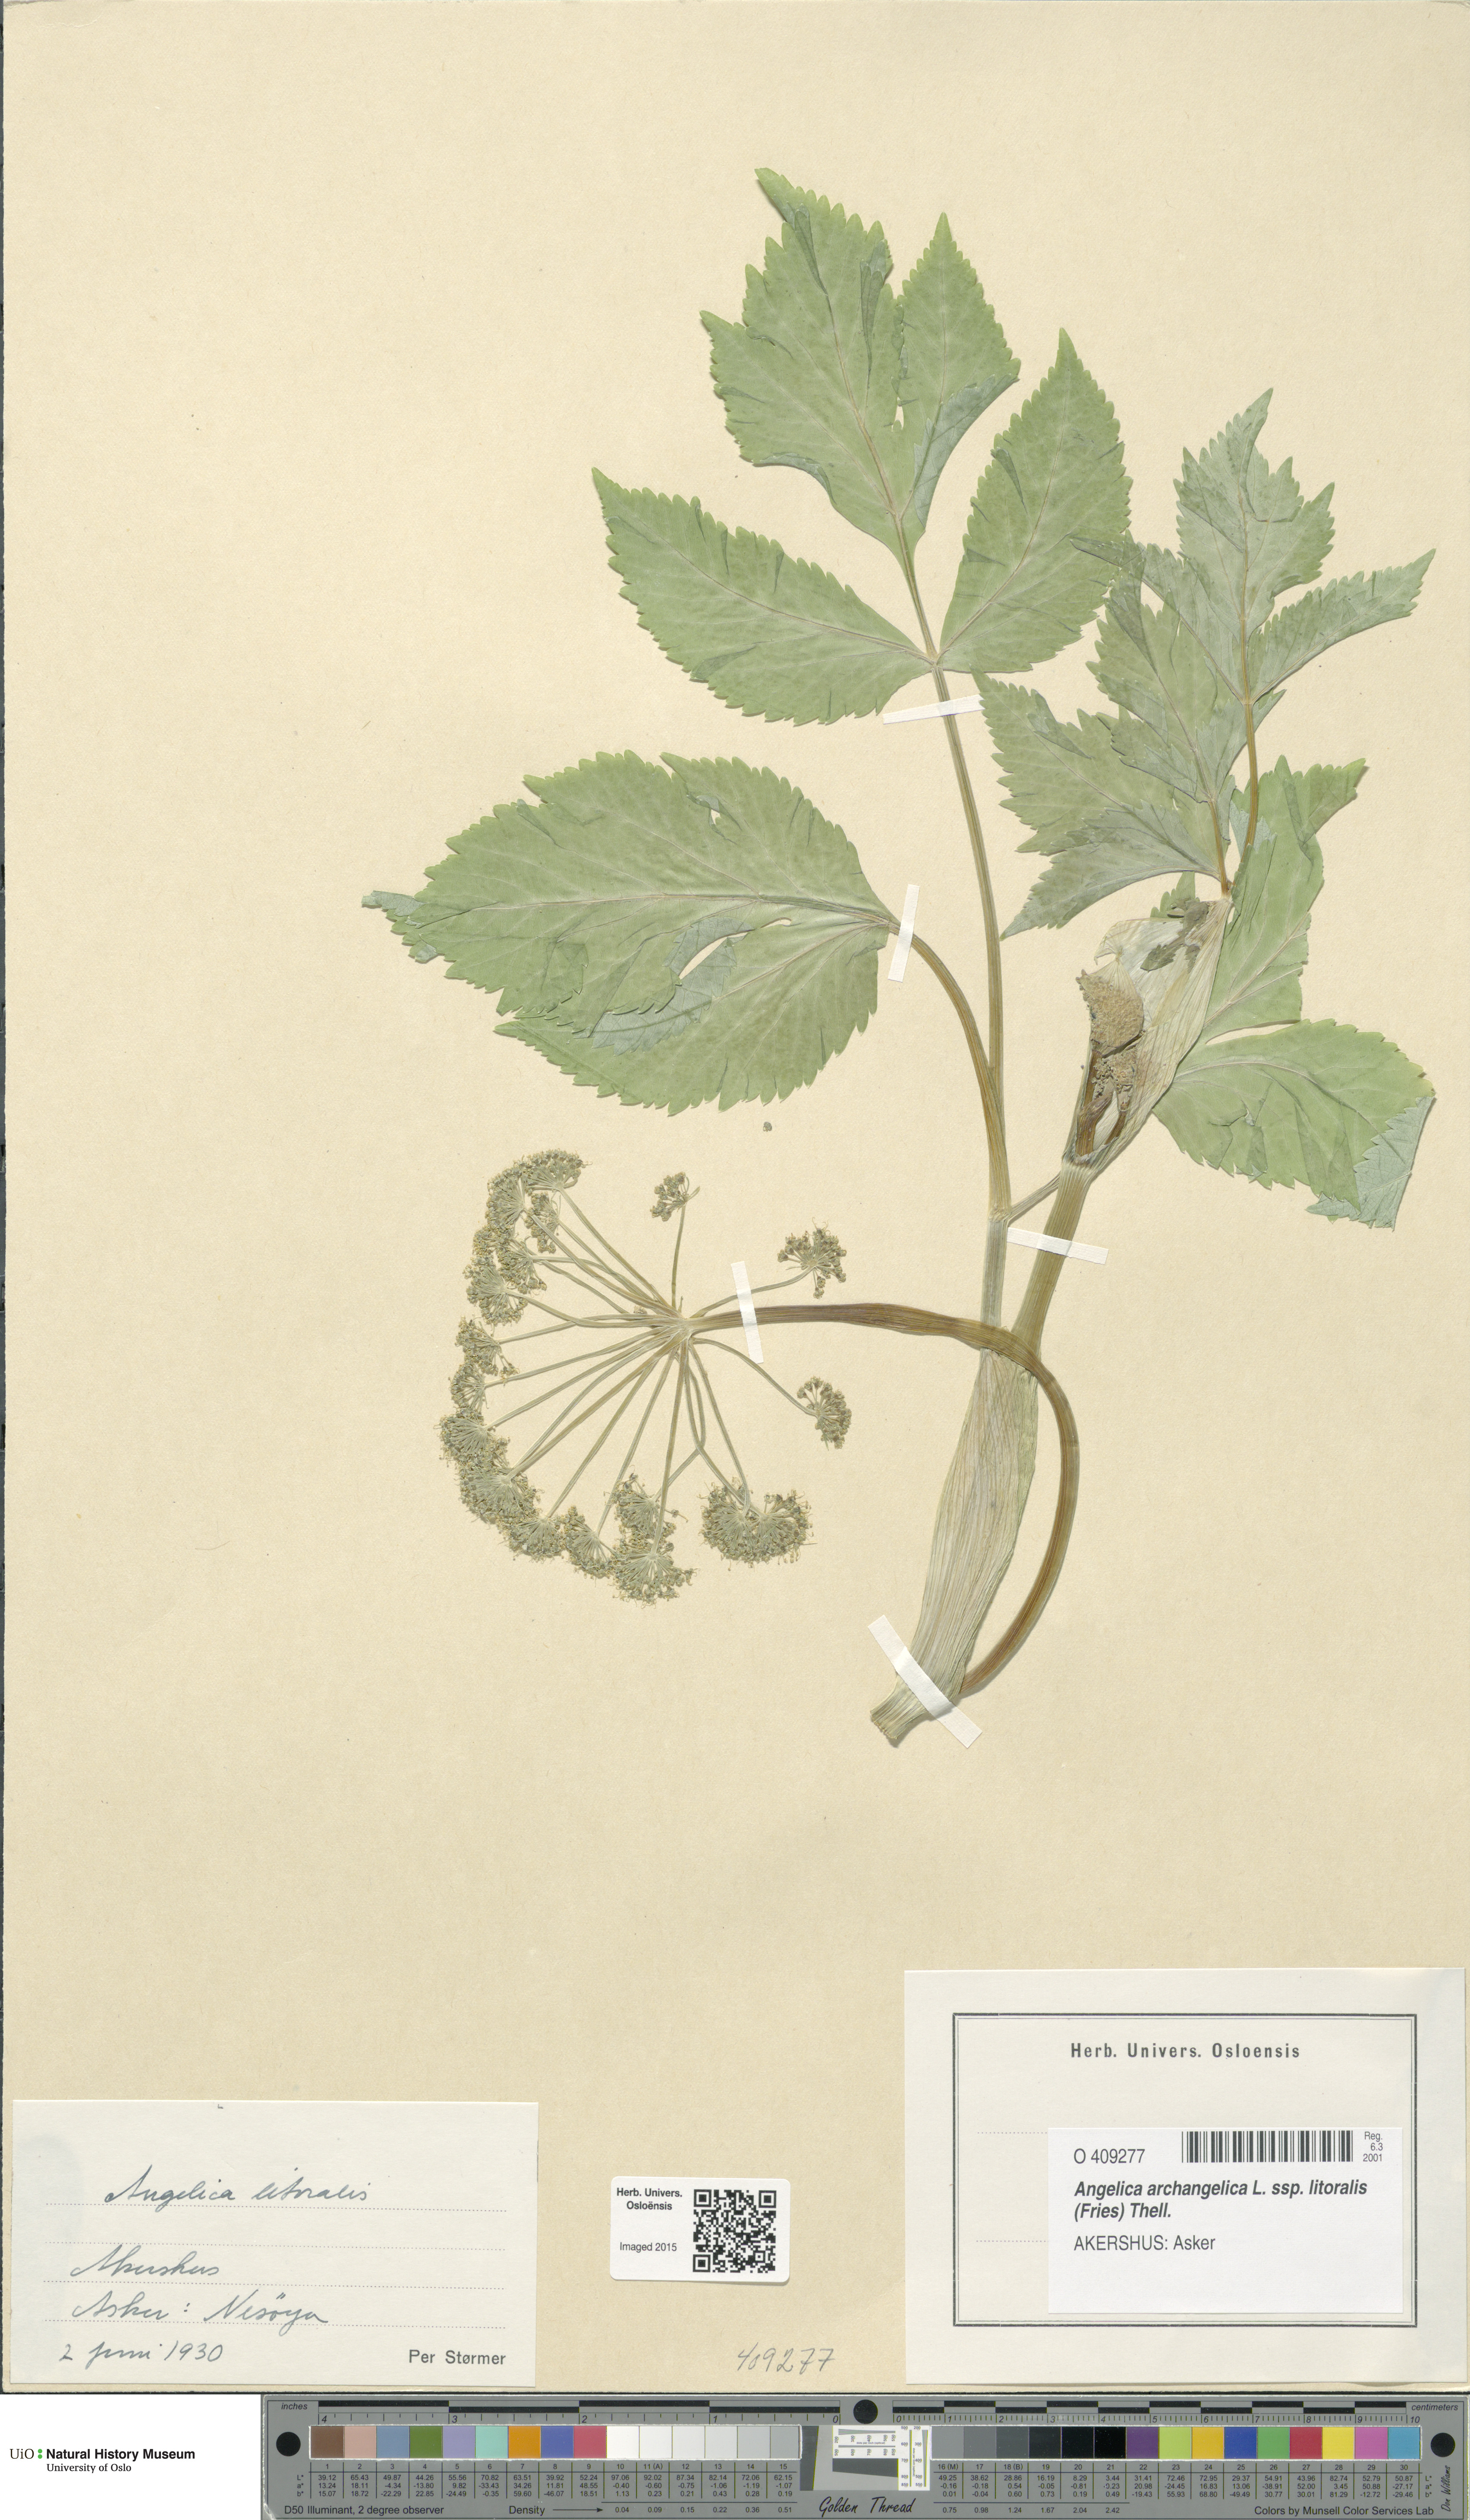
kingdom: Plantae
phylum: Tracheophyta
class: Magnoliopsida
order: Apiales
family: Apiaceae
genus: Angelica
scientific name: Angelica archangelica
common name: Garden angelica
